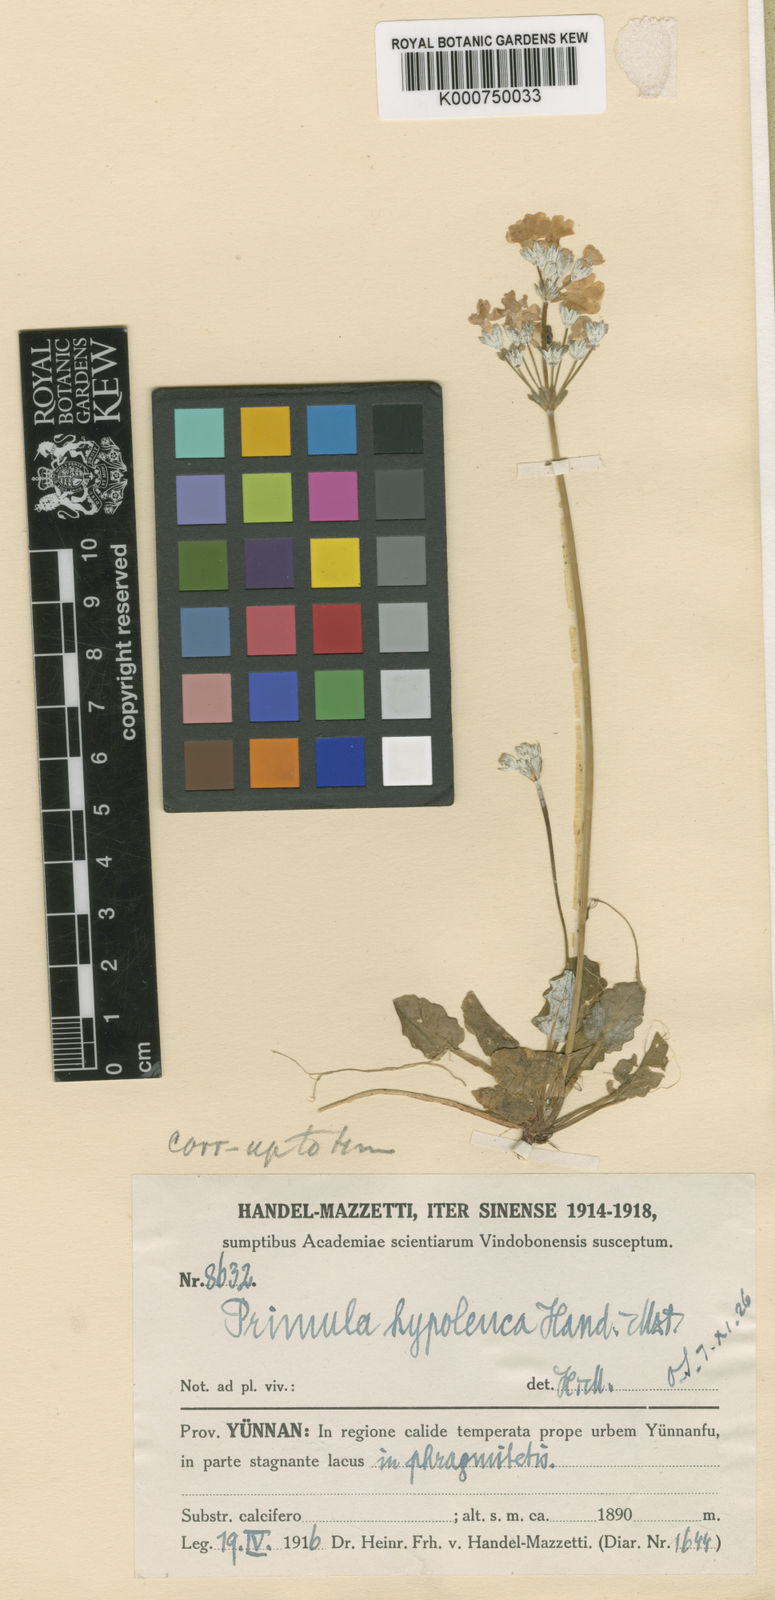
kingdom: Plantae
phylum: Tracheophyta
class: Magnoliopsida
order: Ericales
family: Primulaceae
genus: Primula
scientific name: Primula filipes
